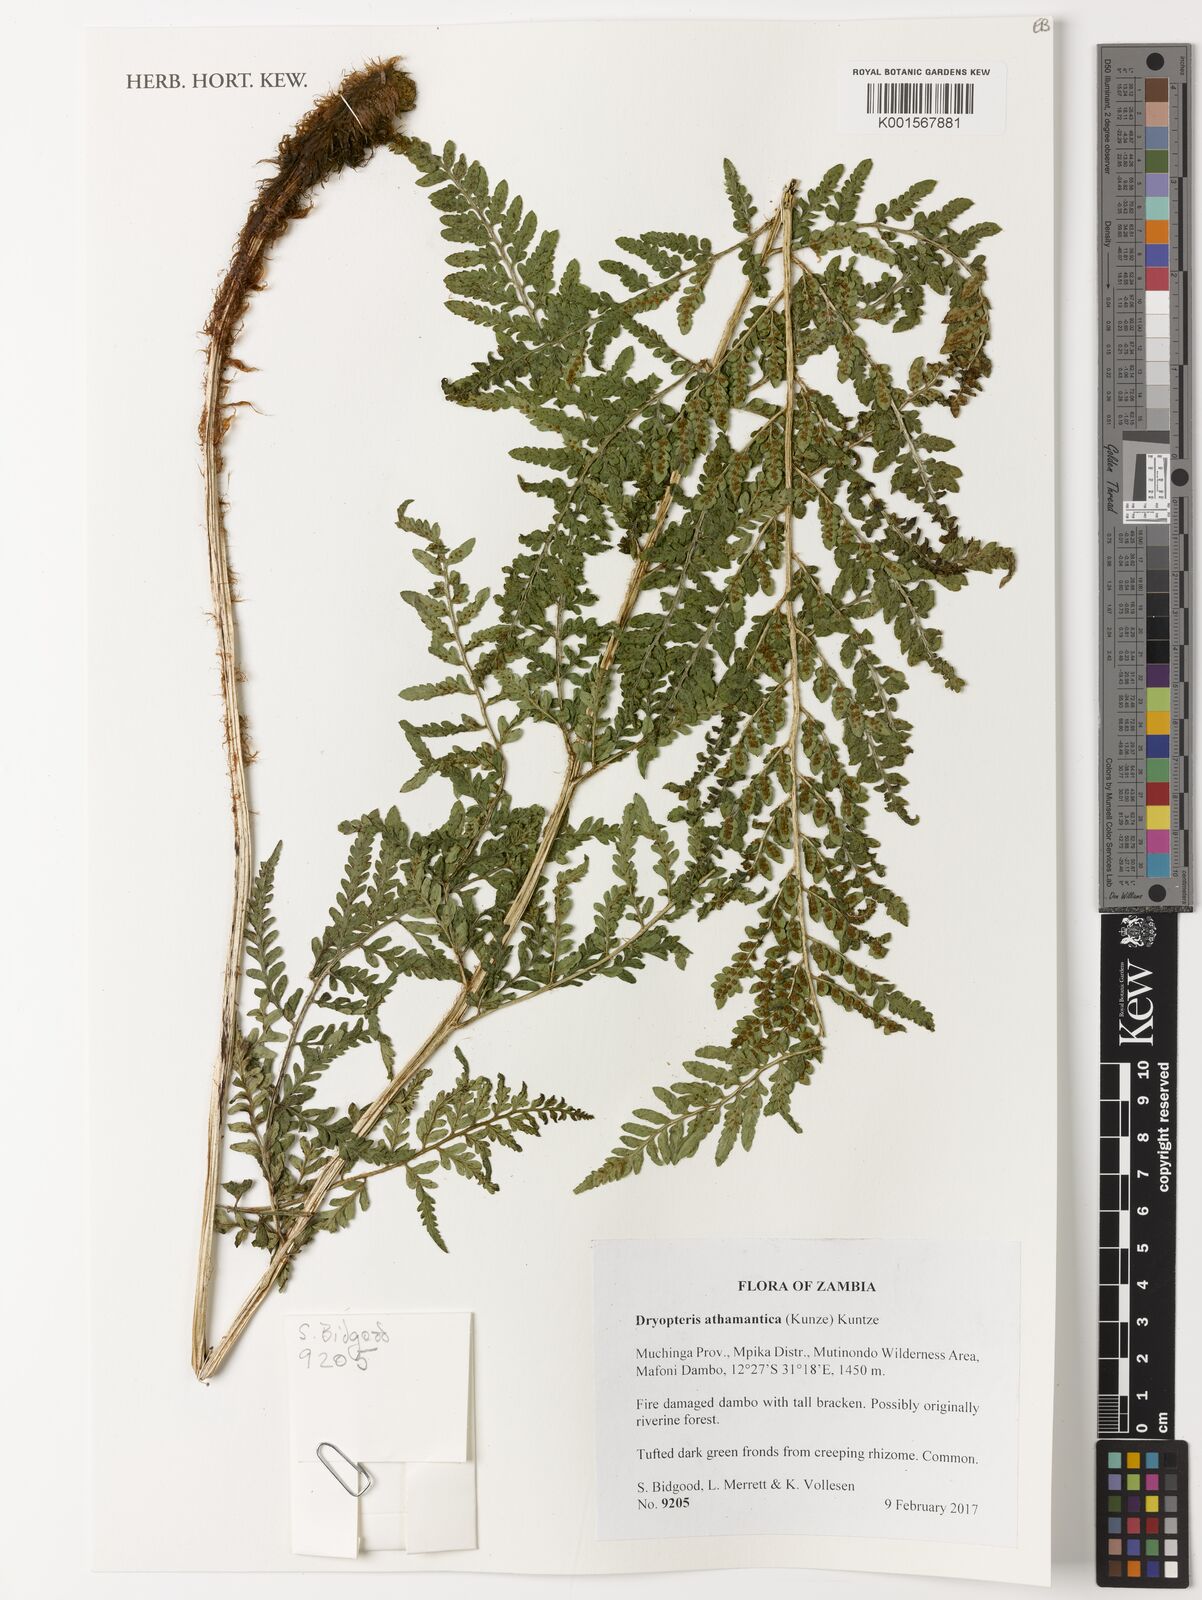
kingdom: Plantae
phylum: Tracheophyta
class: Polypodiopsida
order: Polypodiales
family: Dryopteridaceae
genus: Dryopteris
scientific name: Dryopteris athamantica
